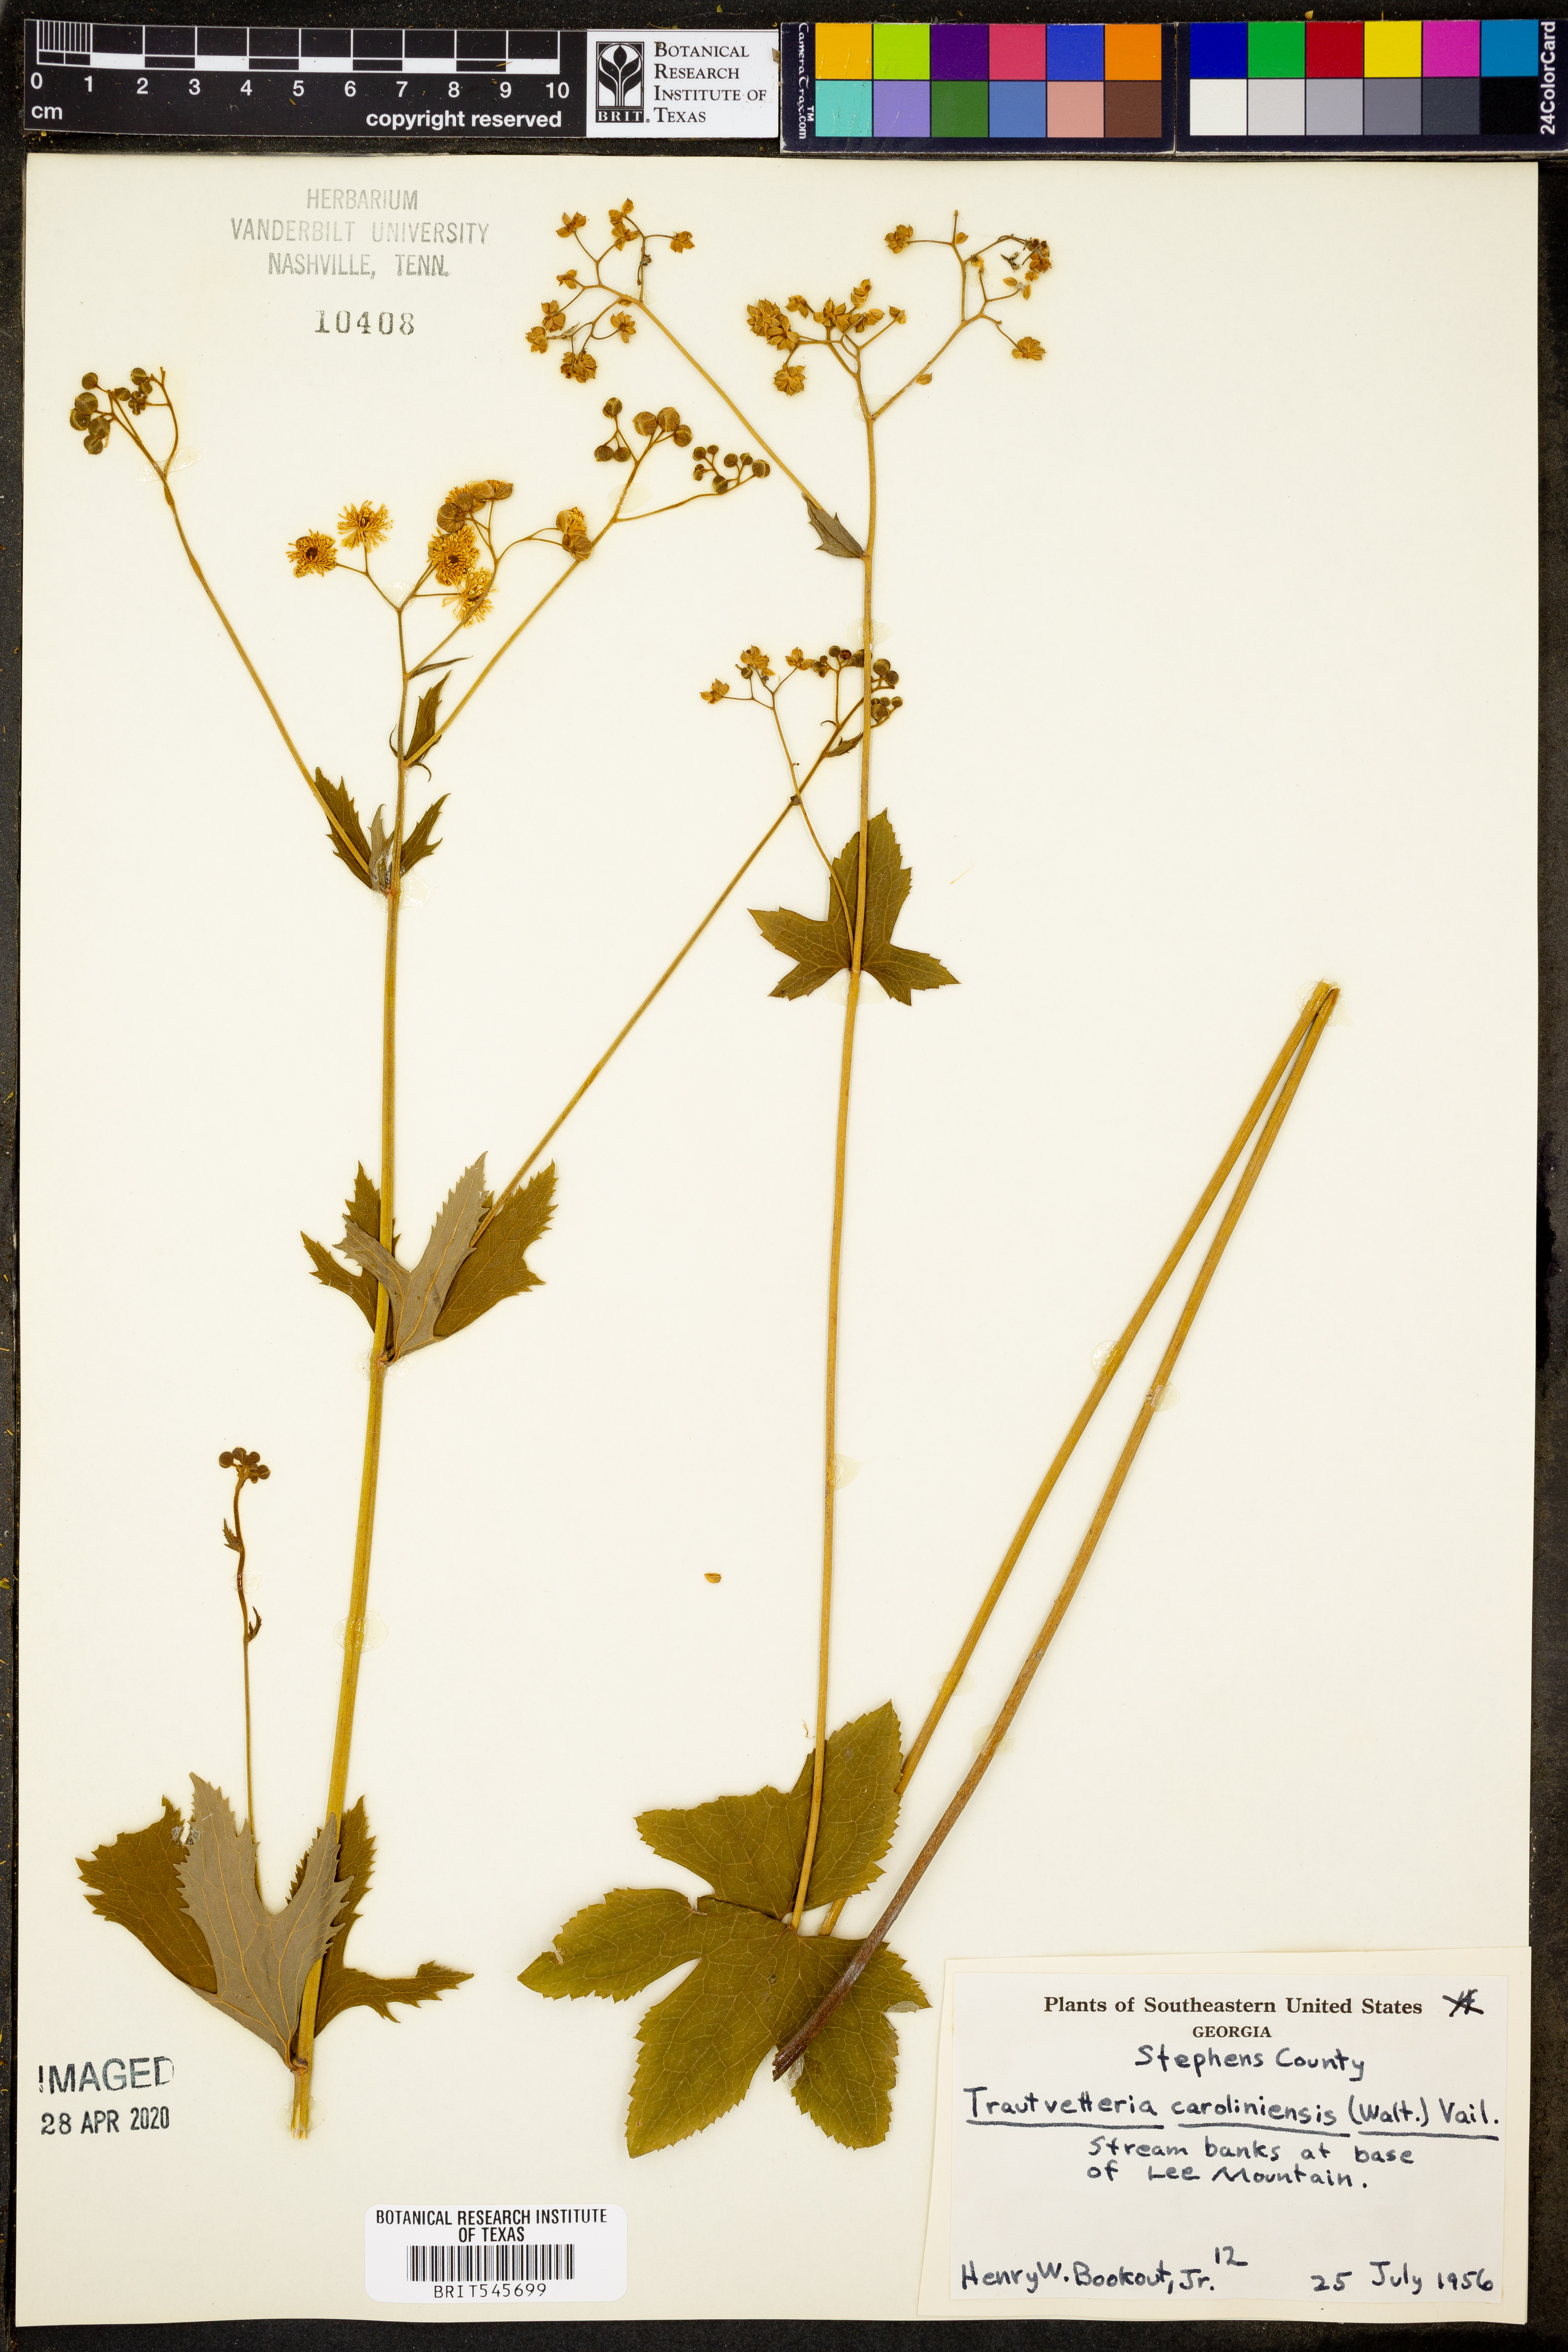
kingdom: Plantae
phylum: Tracheophyta
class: Magnoliopsida
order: Ranunculales
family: Ranunculaceae
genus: Trautvetteria
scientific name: Trautvetteria carolinensis
